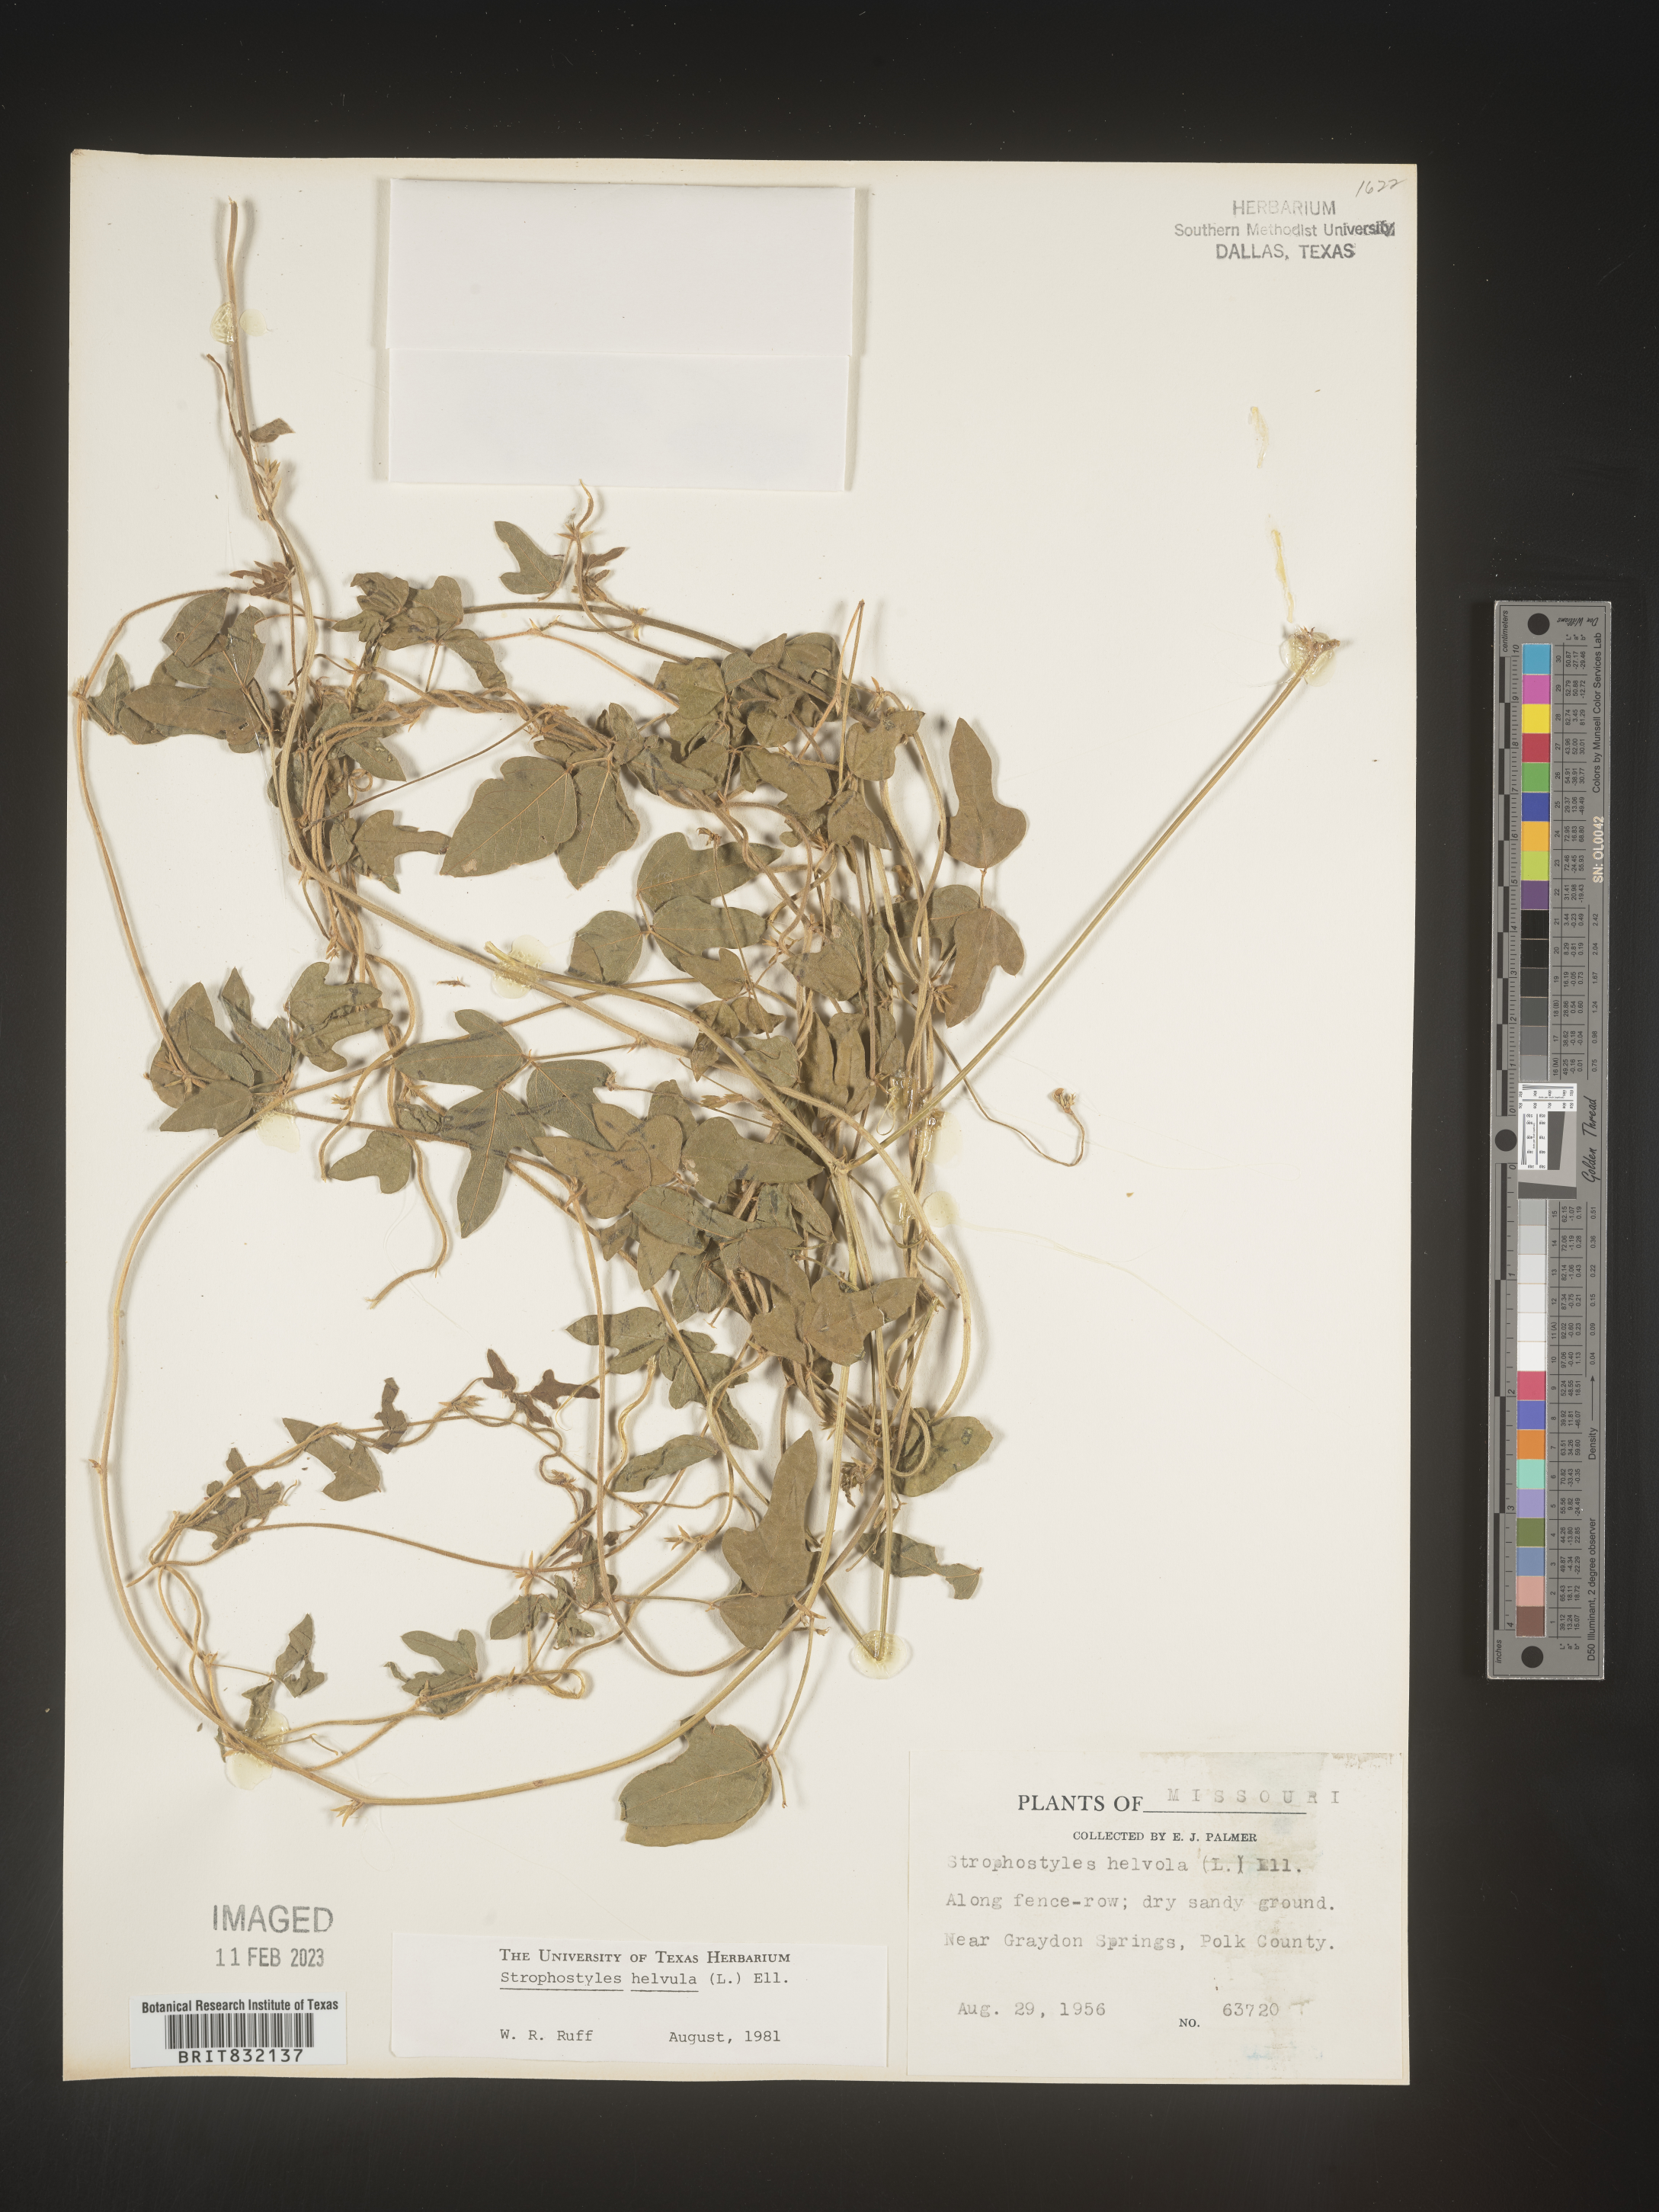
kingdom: Plantae
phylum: Tracheophyta
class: Magnoliopsida
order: Fabales
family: Fabaceae
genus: Strophostyles
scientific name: Strophostyles helvola
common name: Trailing wild bean
